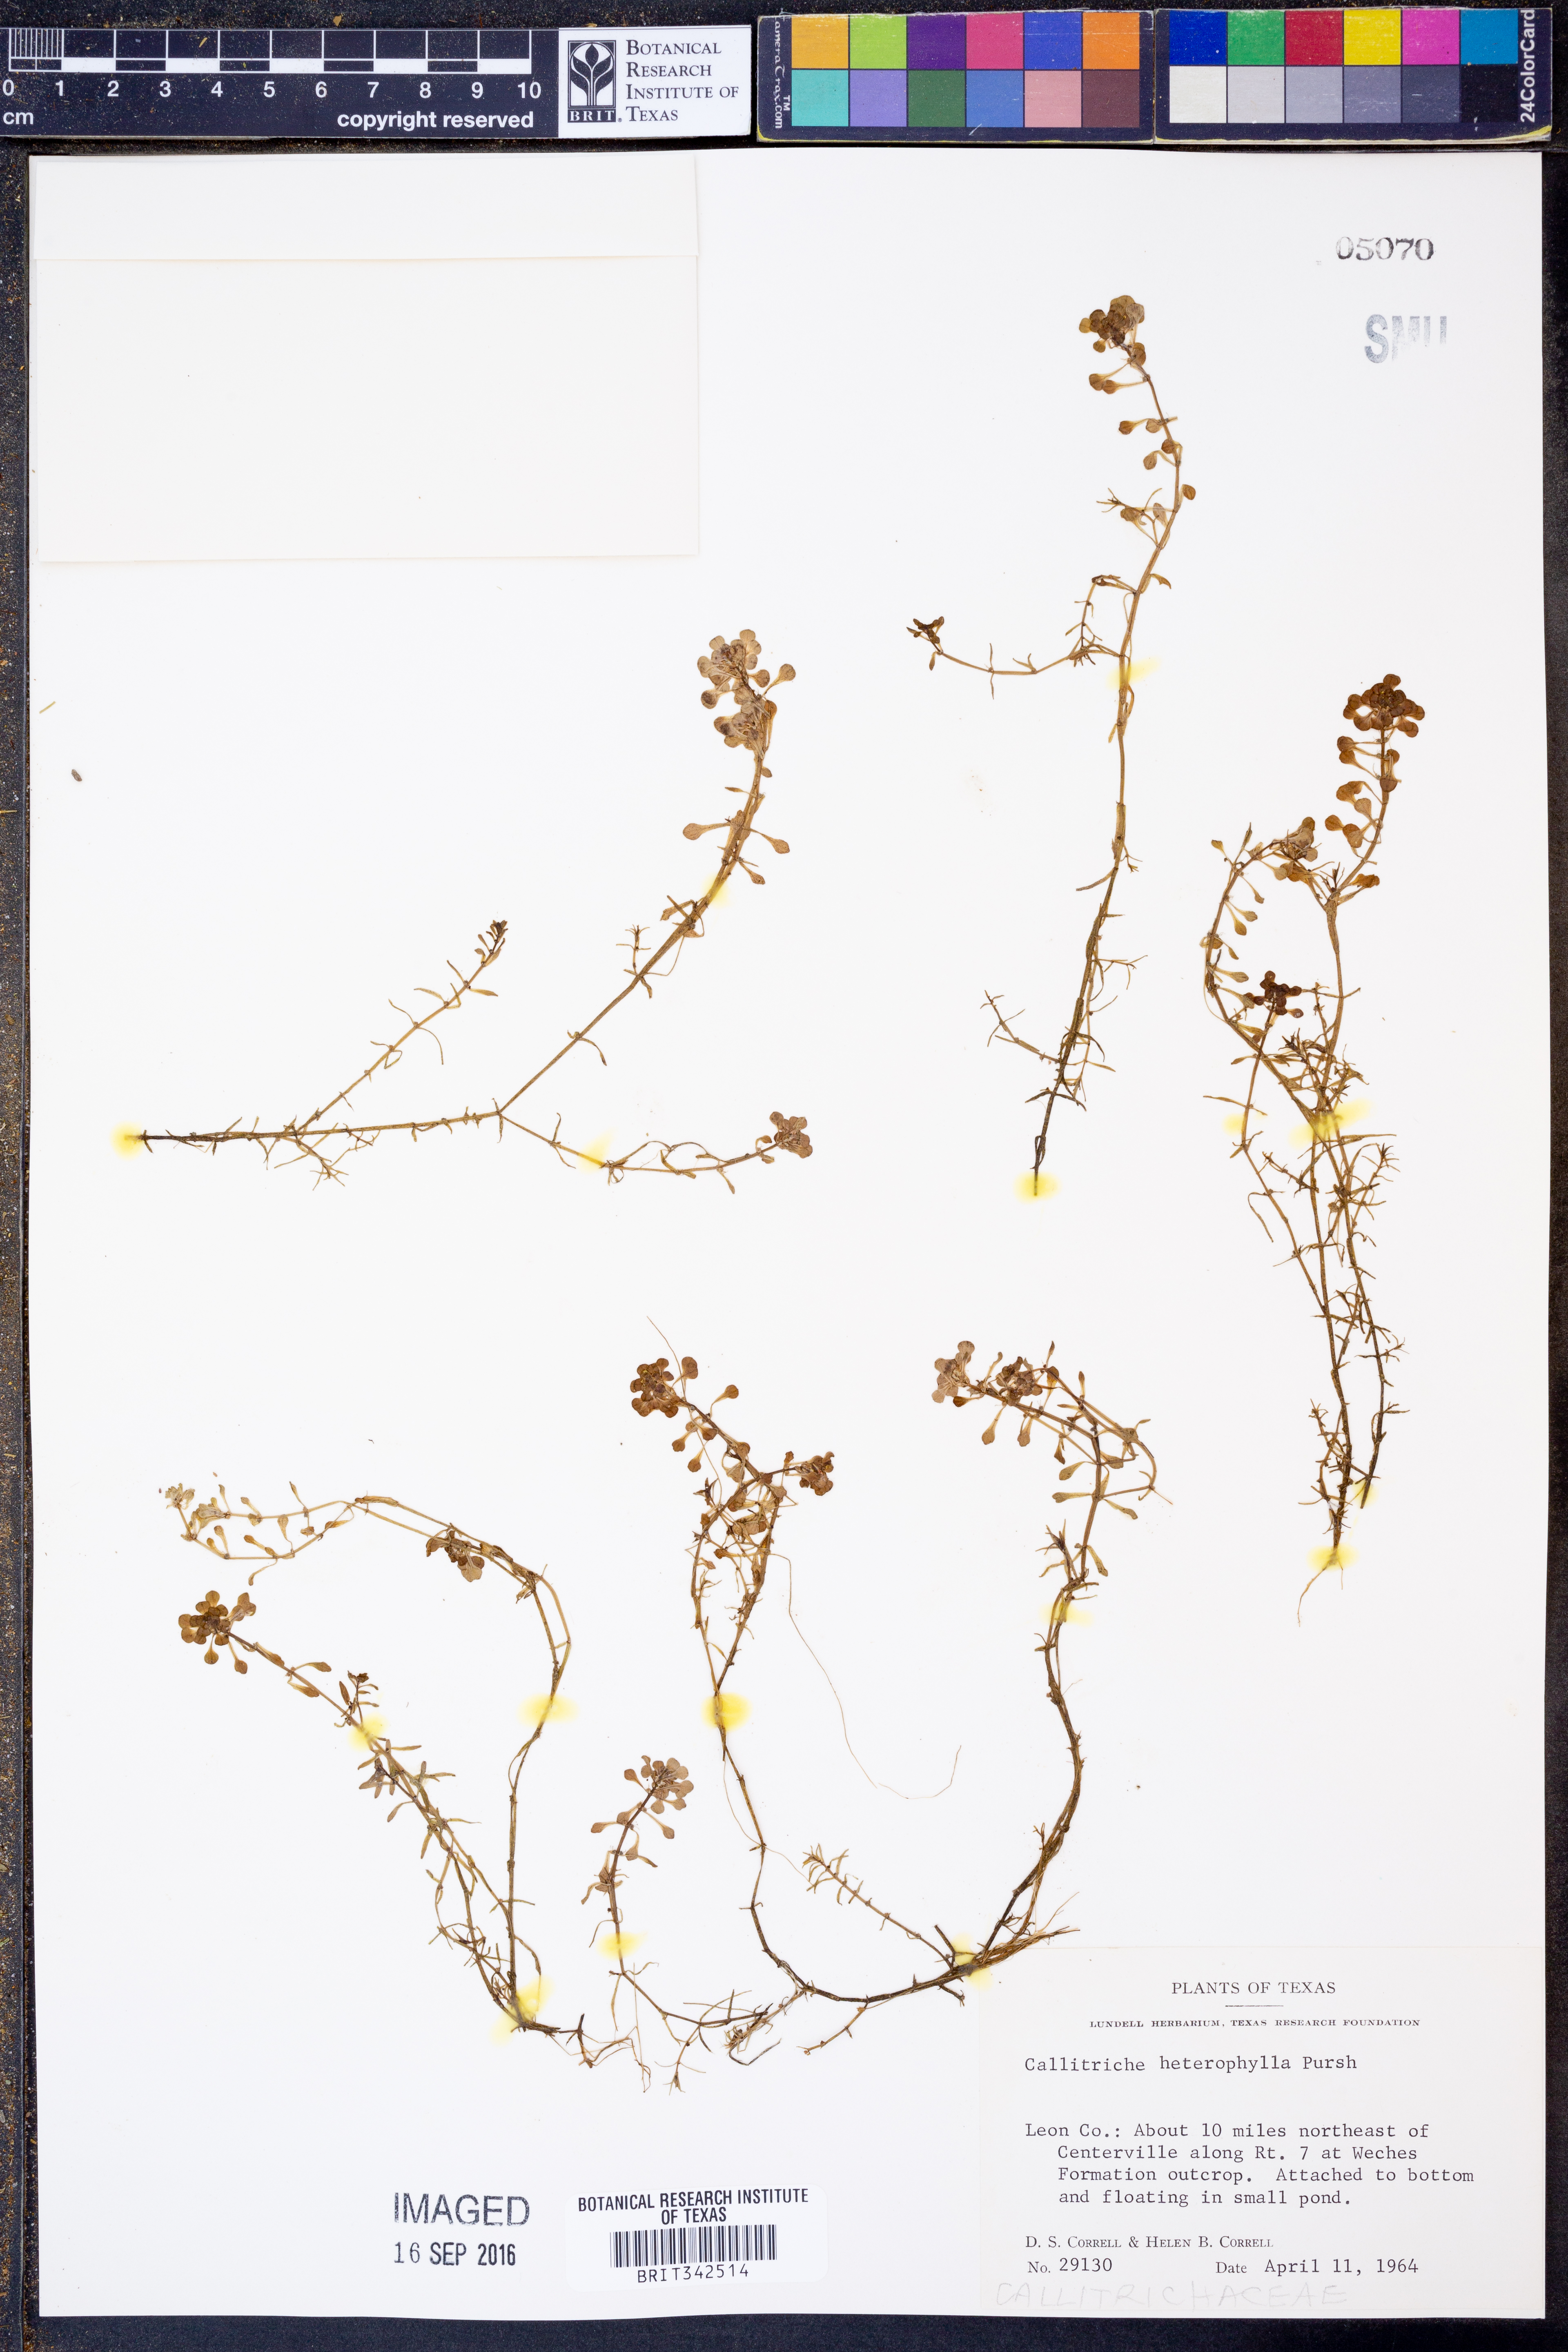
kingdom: Plantae
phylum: Tracheophyta
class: Magnoliopsida
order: Lamiales
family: Plantaginaceae
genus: Callitriche
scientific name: Callitriche heterophylla
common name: Two-headed water-starwort
